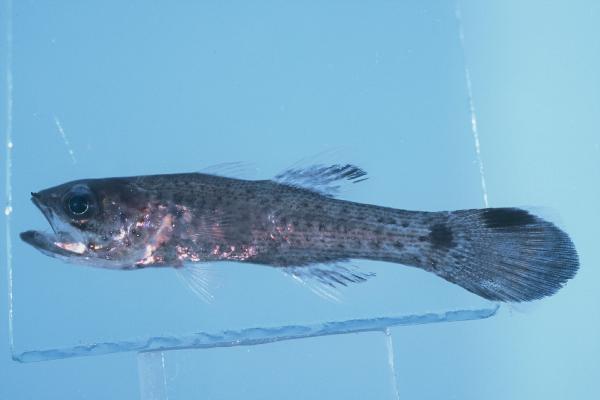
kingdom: Animalia
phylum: Chordata
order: Perciformes
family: Apogonidae
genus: Pseudamia
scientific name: Pseudamia gelatinosa
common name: Gelatinous cardinalfish
